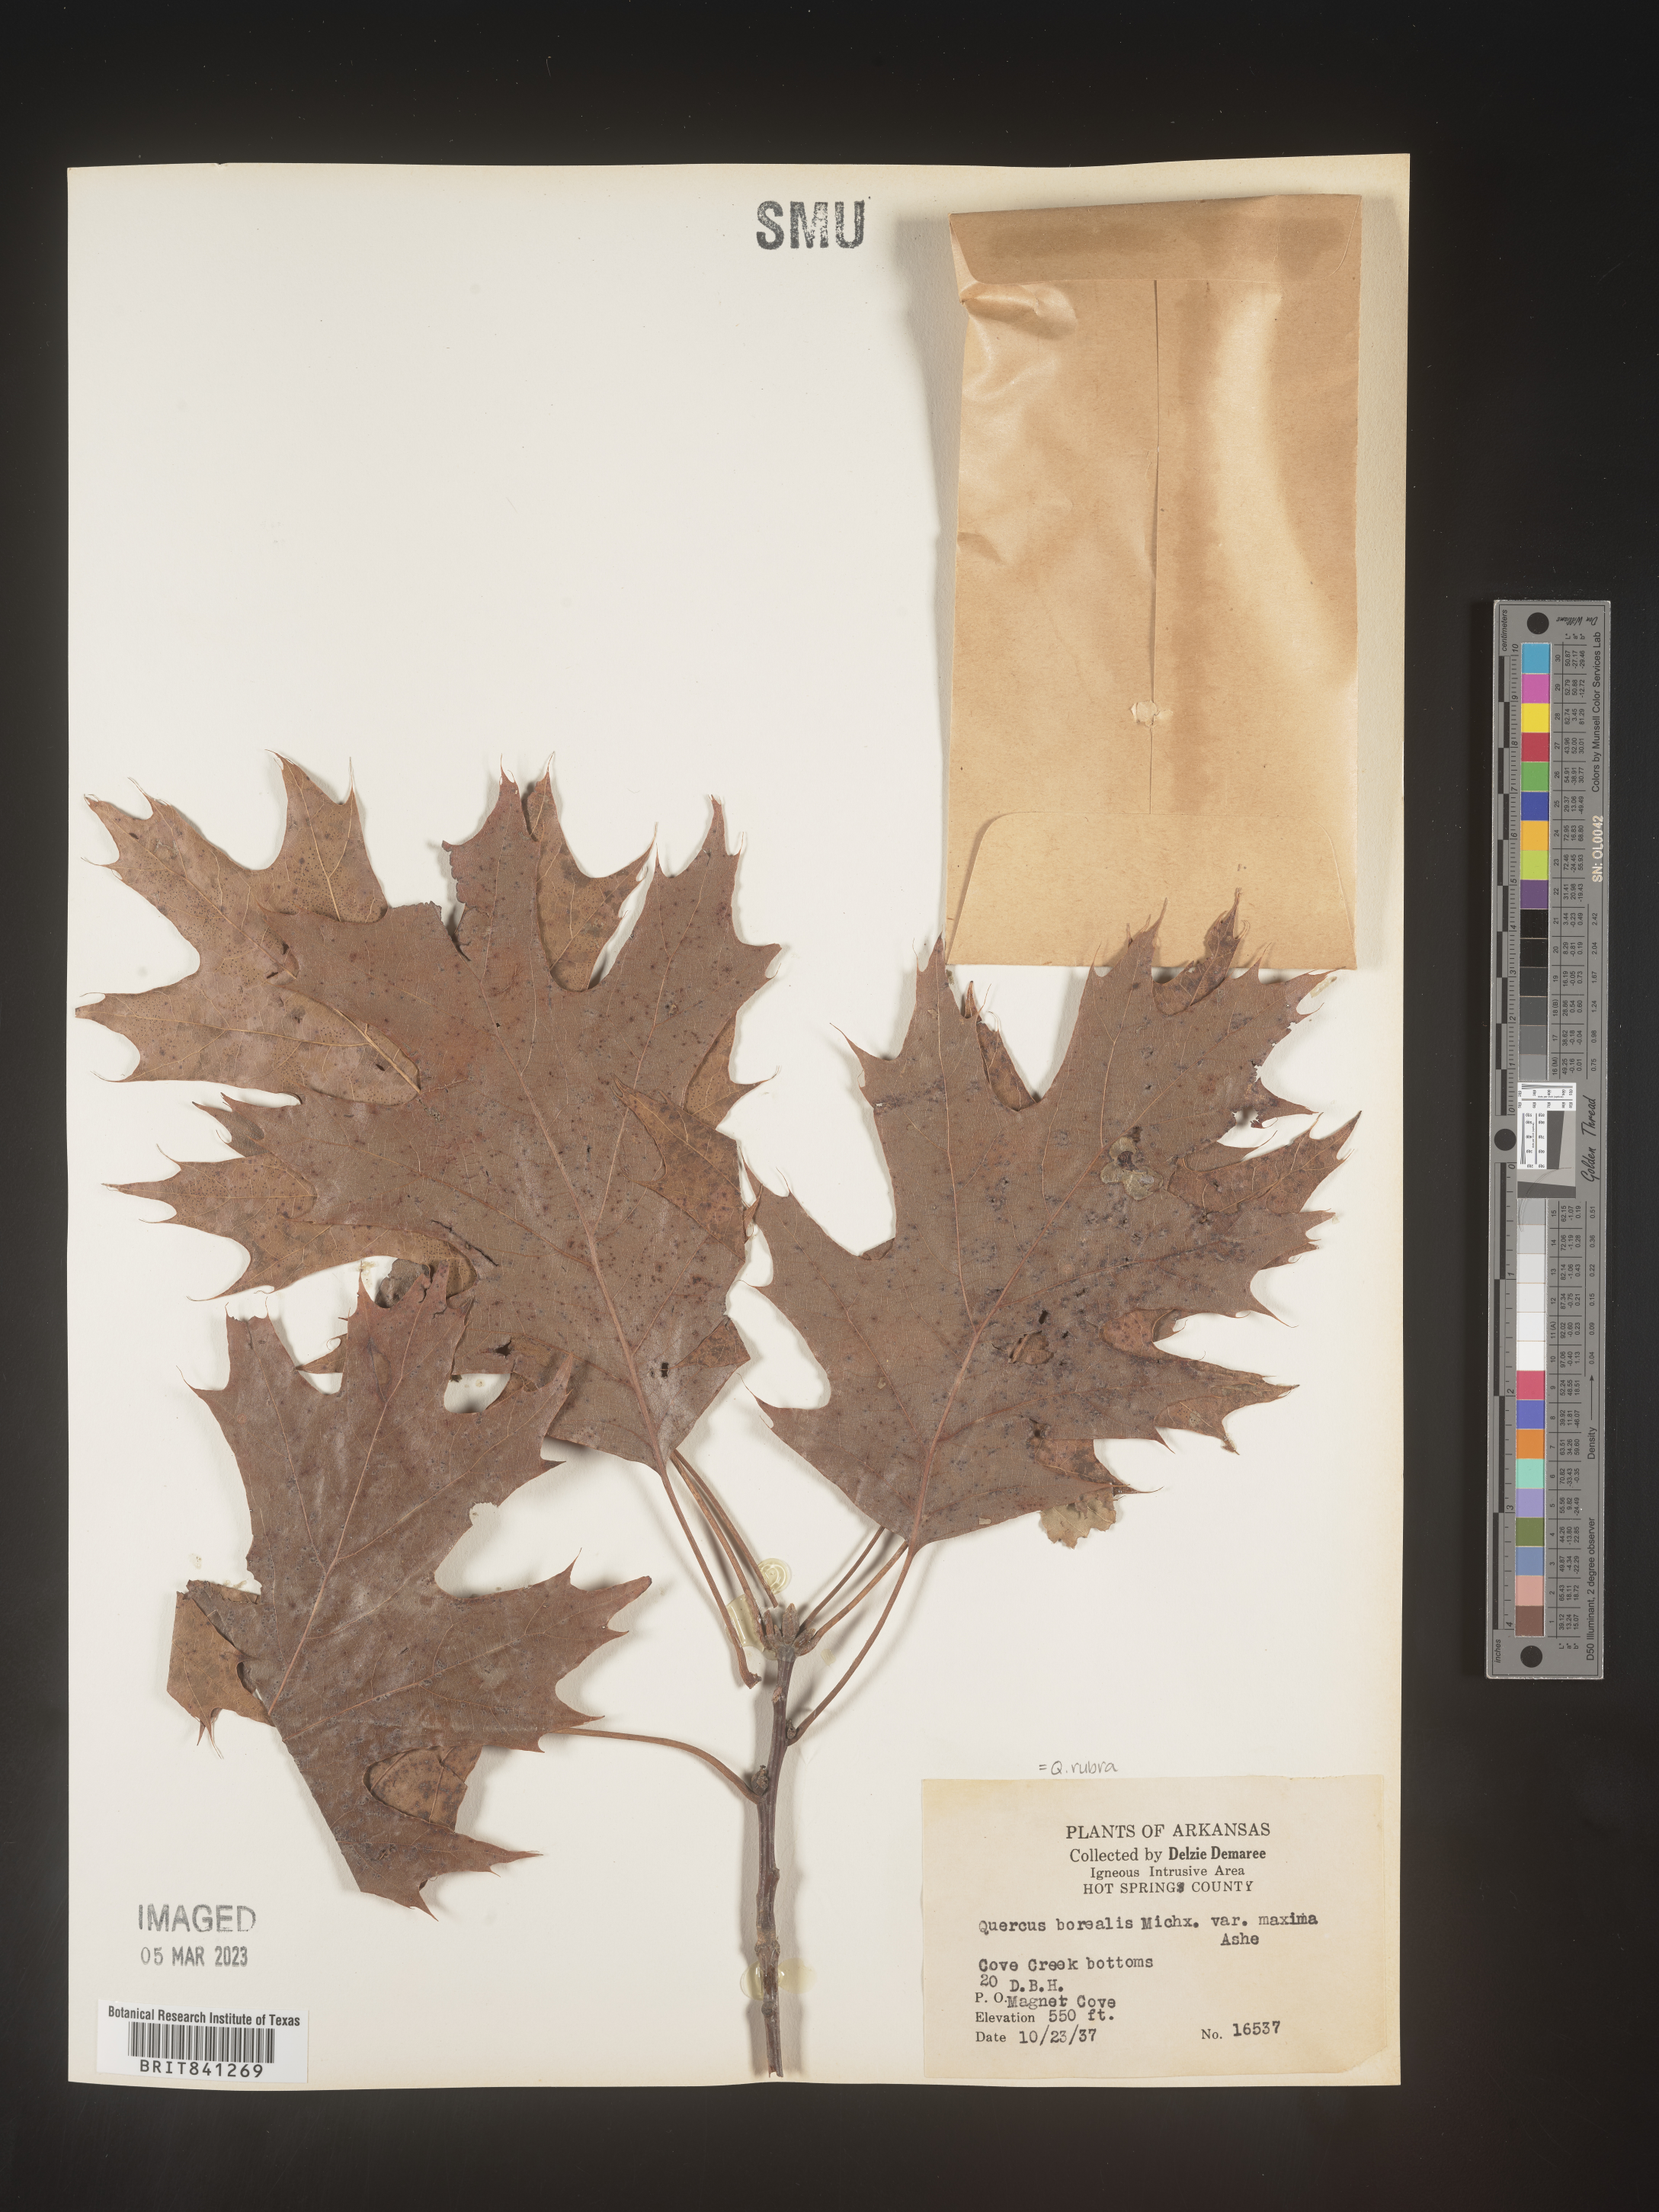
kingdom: Plantae
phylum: Tracheophyta
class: Magnoliopsida
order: Fagales
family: Fagaceae
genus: Quercus
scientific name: Quercus rubra
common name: Red oak
